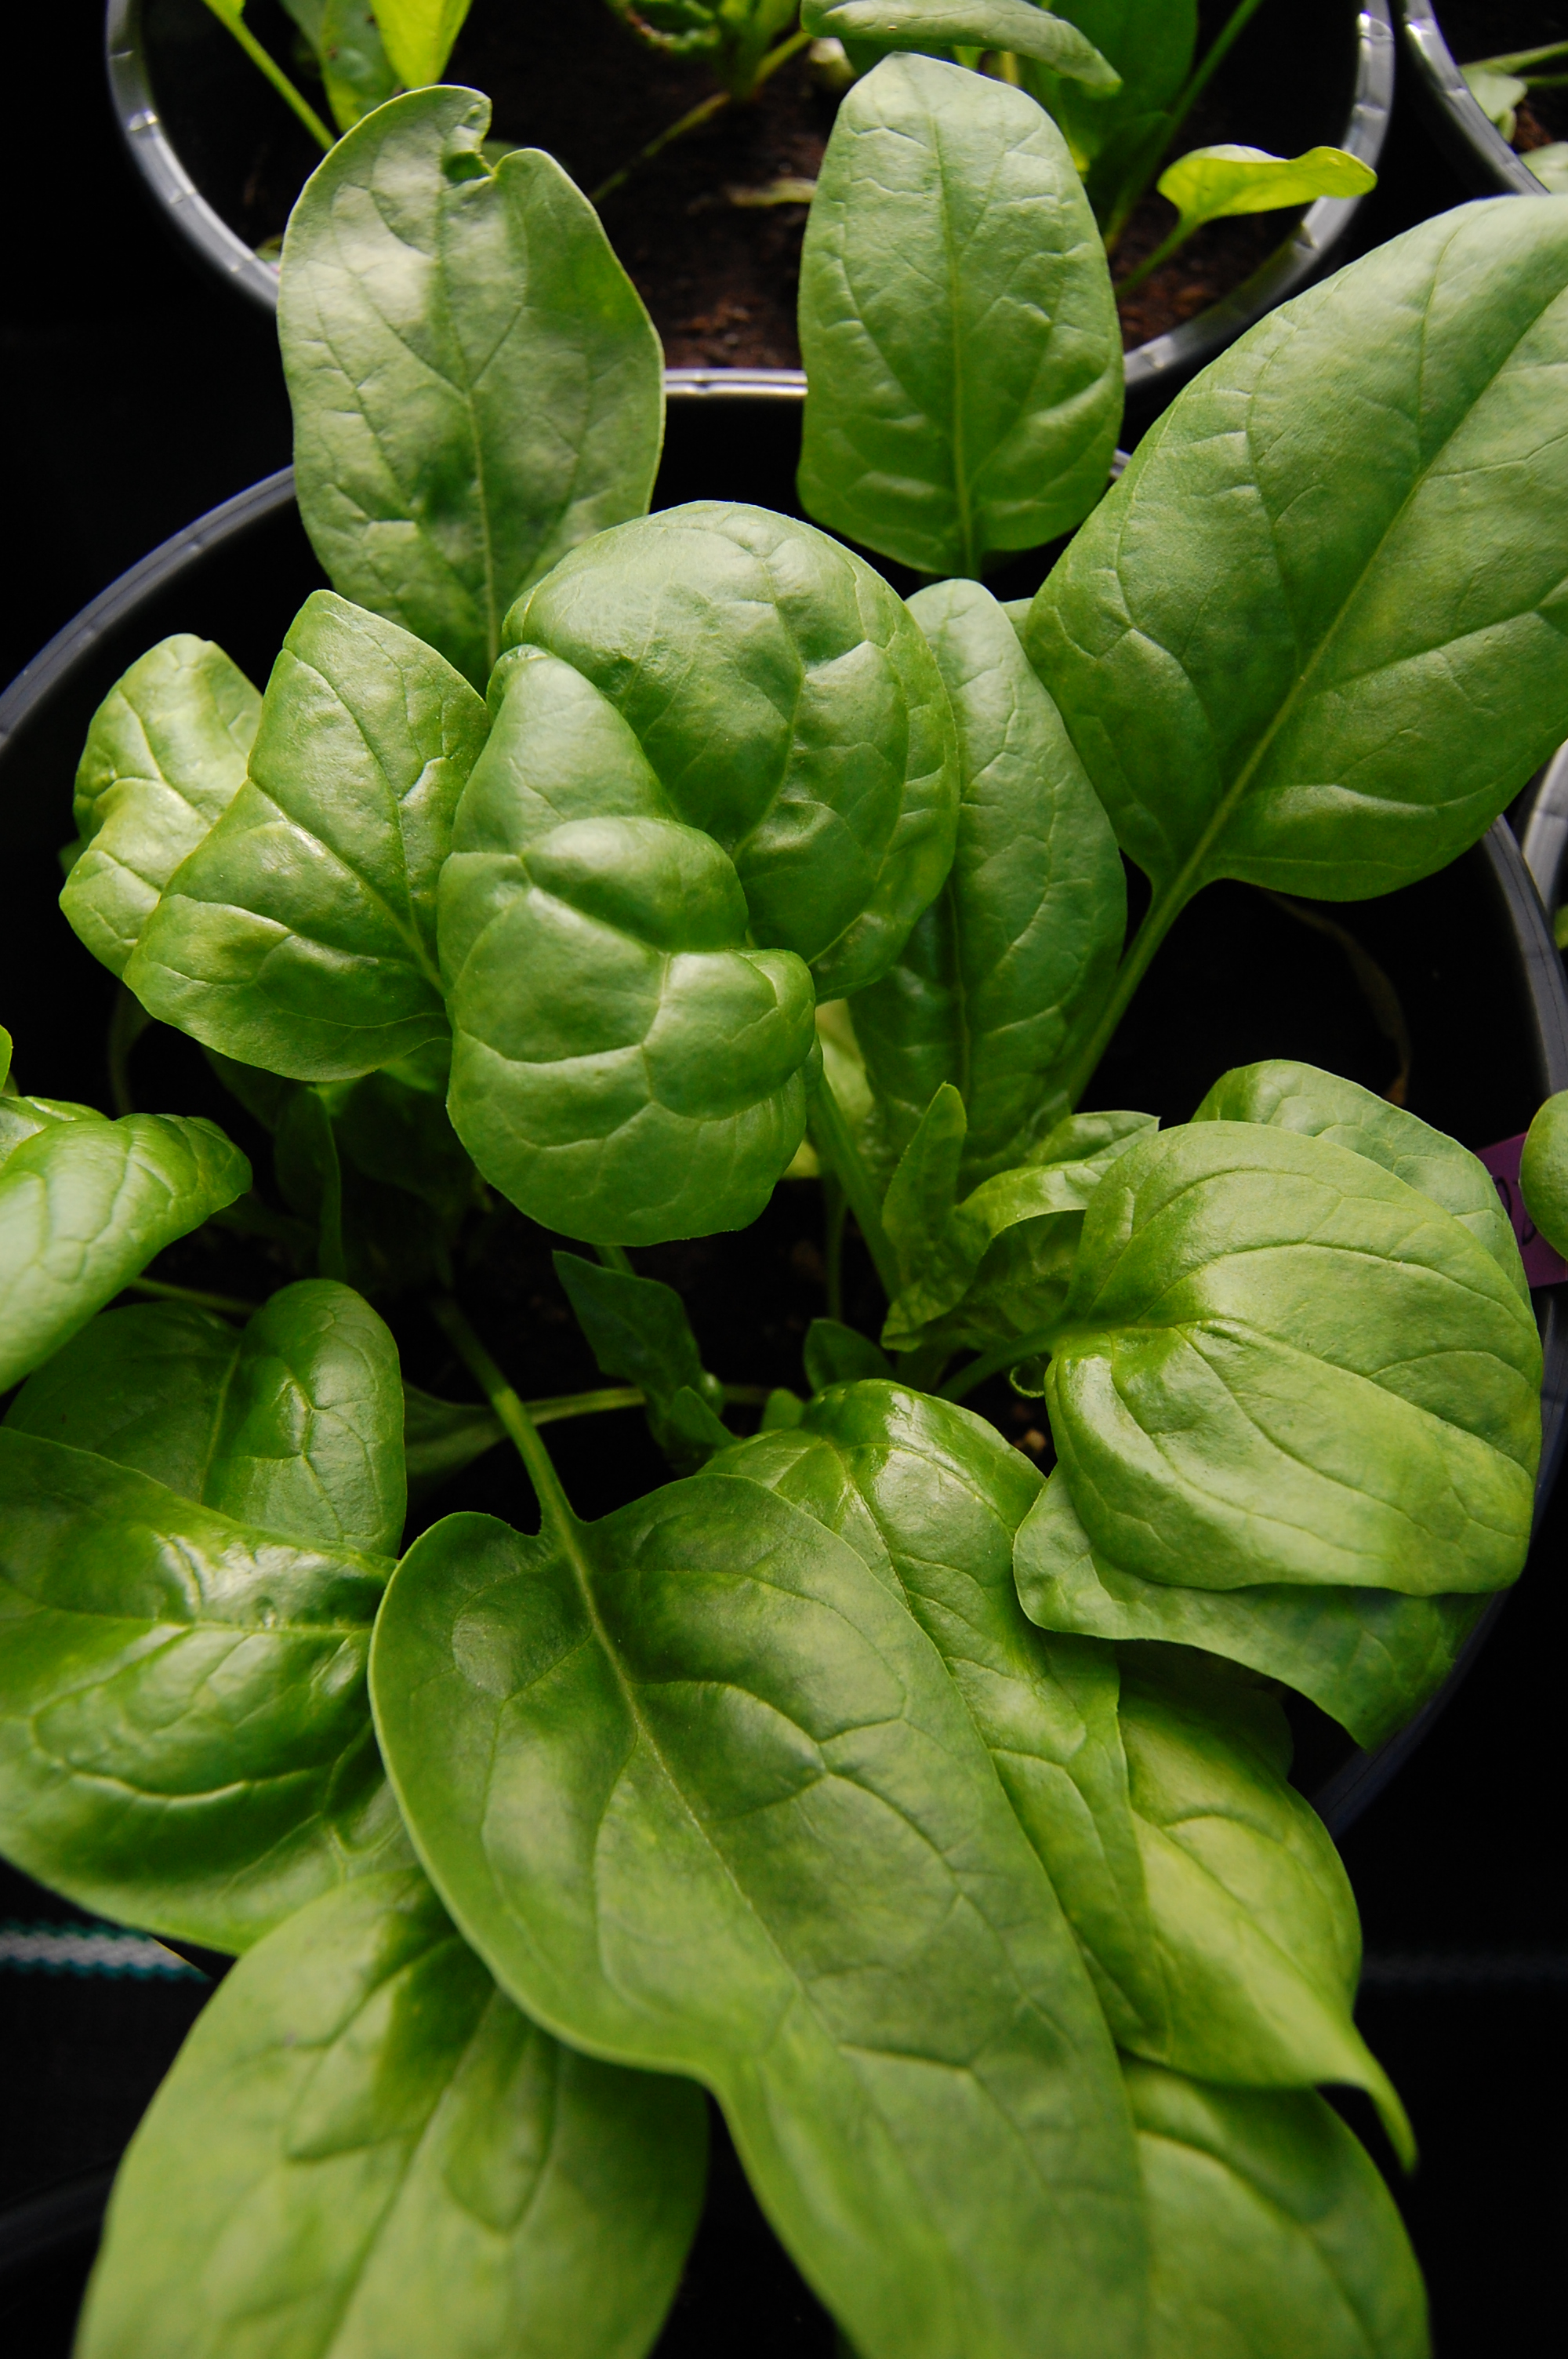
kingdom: Plantae
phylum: Tracheophyta
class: Magnoliopsida
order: Caryophyllales
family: Amaranthaceae
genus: Spinacia
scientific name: Spinacia oleracea
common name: Spinach
